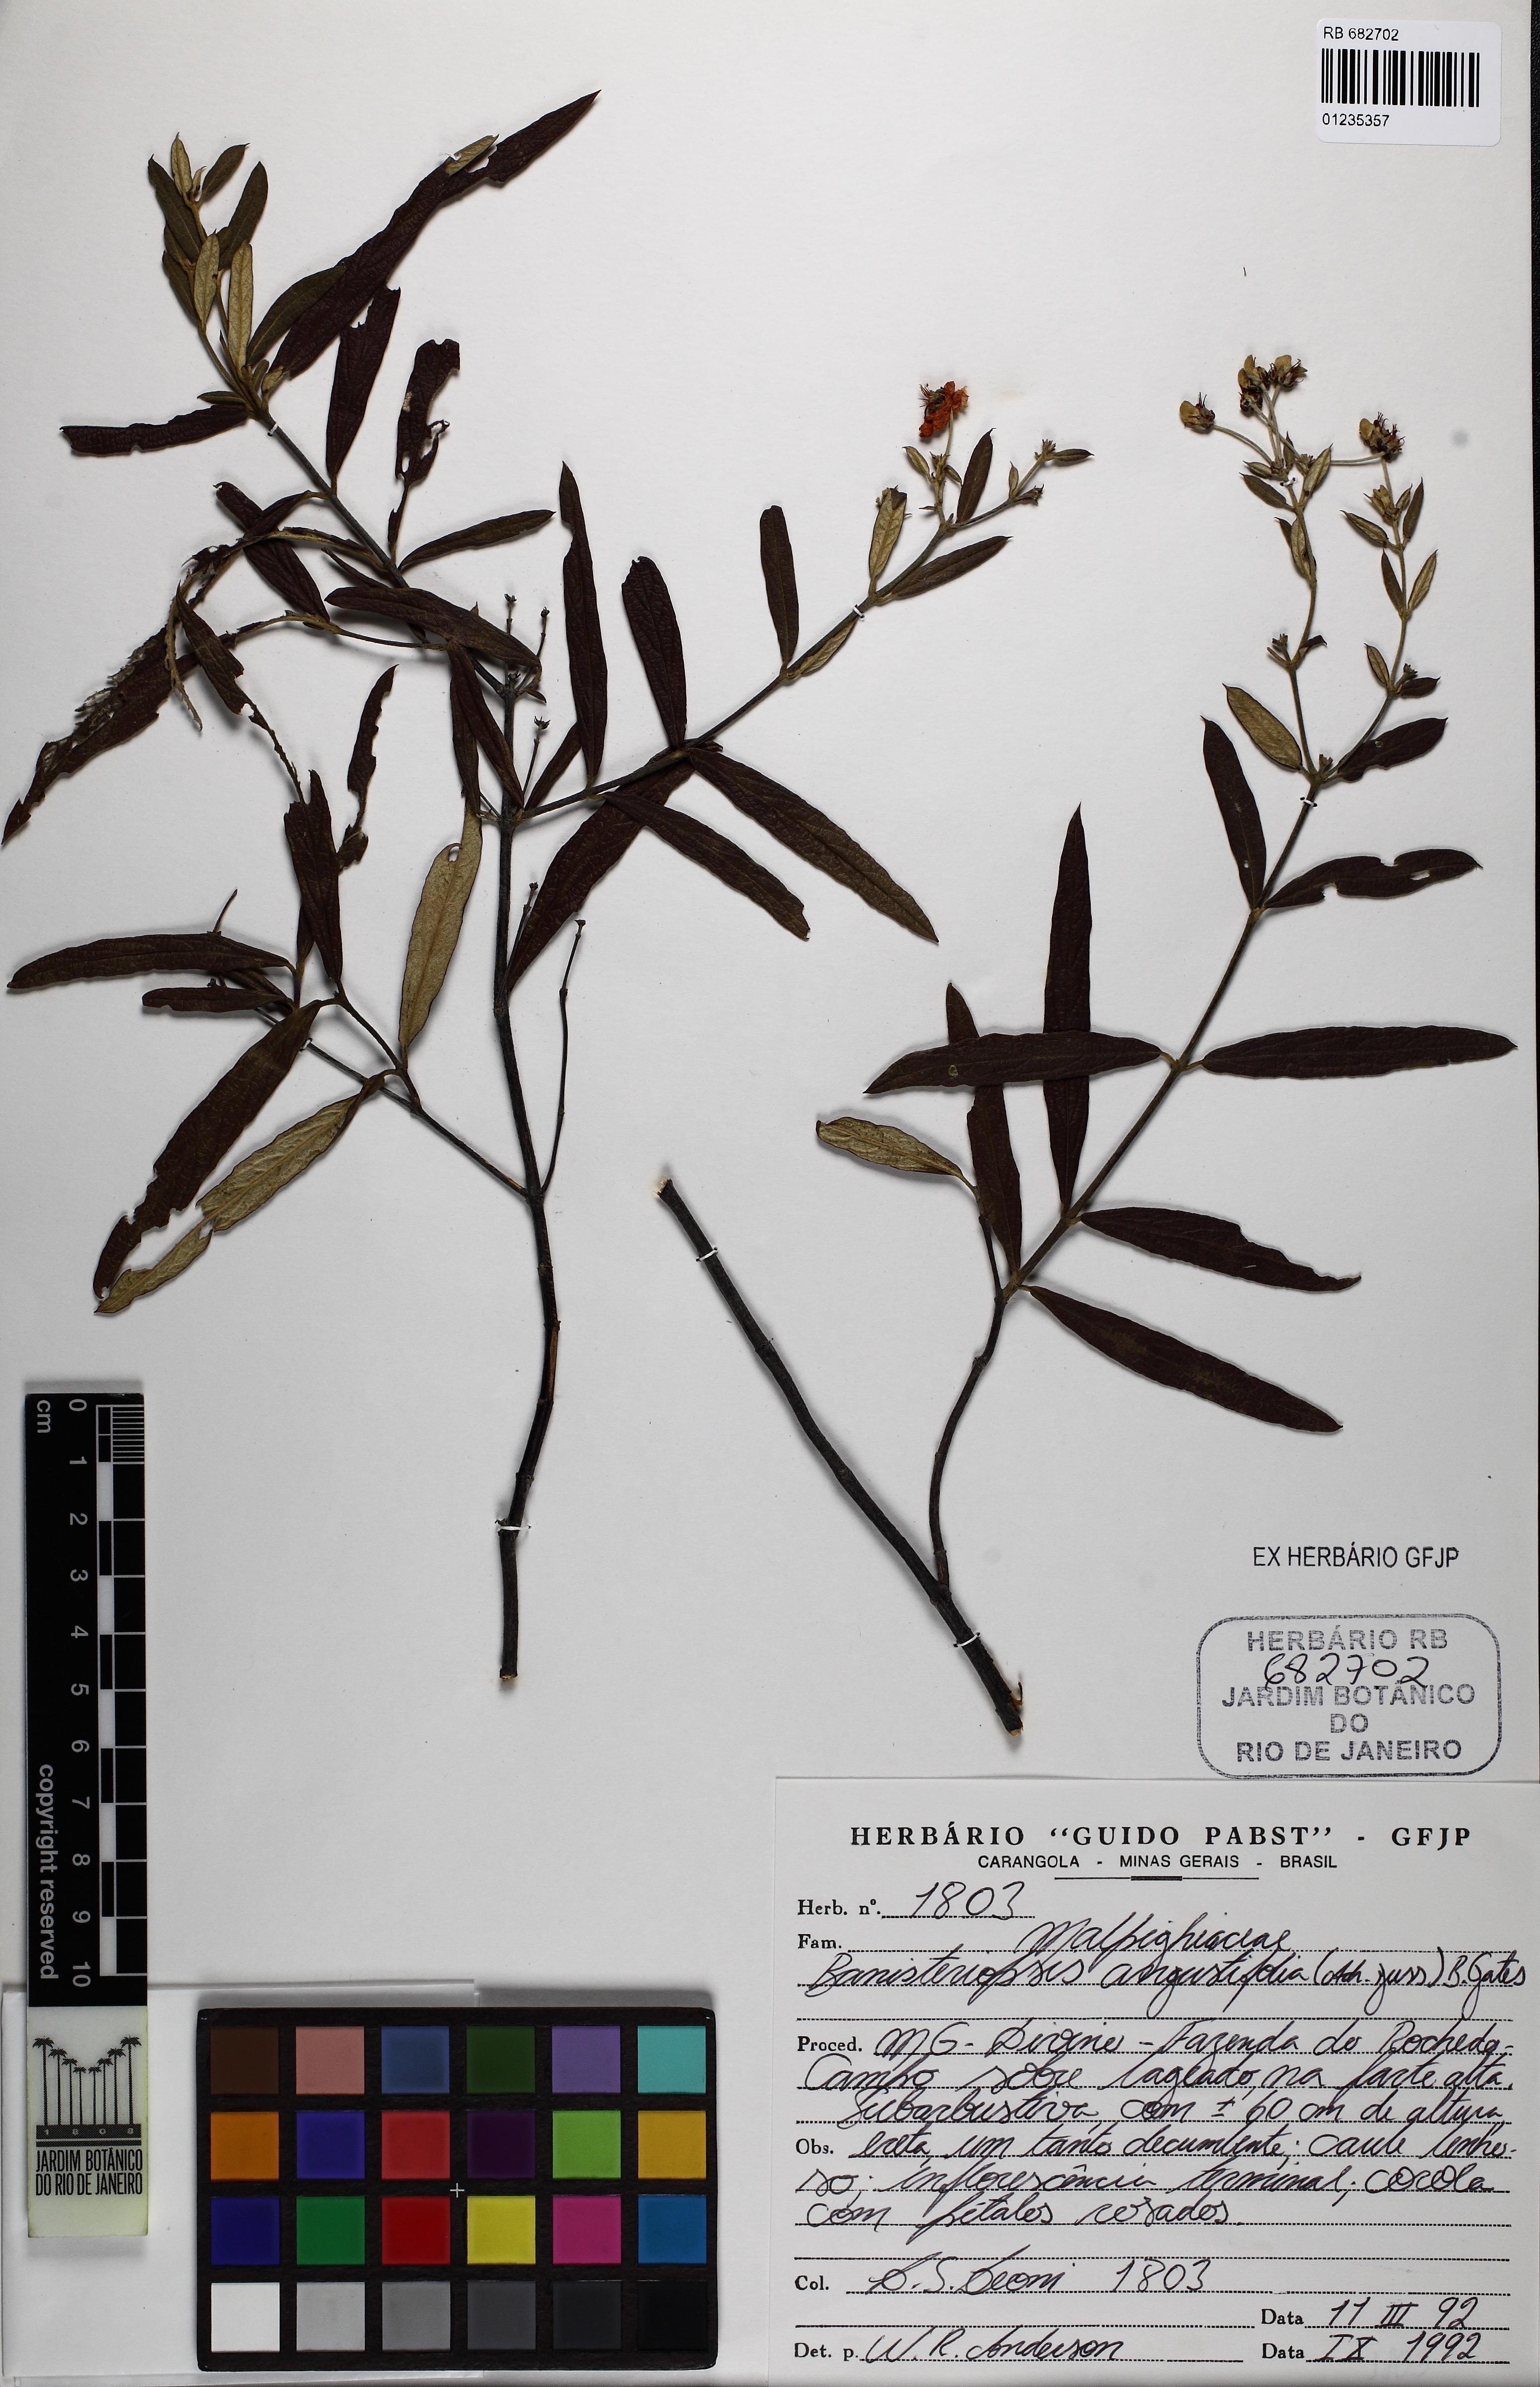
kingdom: Plantae
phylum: Tracheophyta
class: Magnoliopsida
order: Malpighiales
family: Malpighiaceae
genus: Banisteriopsis
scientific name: Banisteriopsis angustifolia
